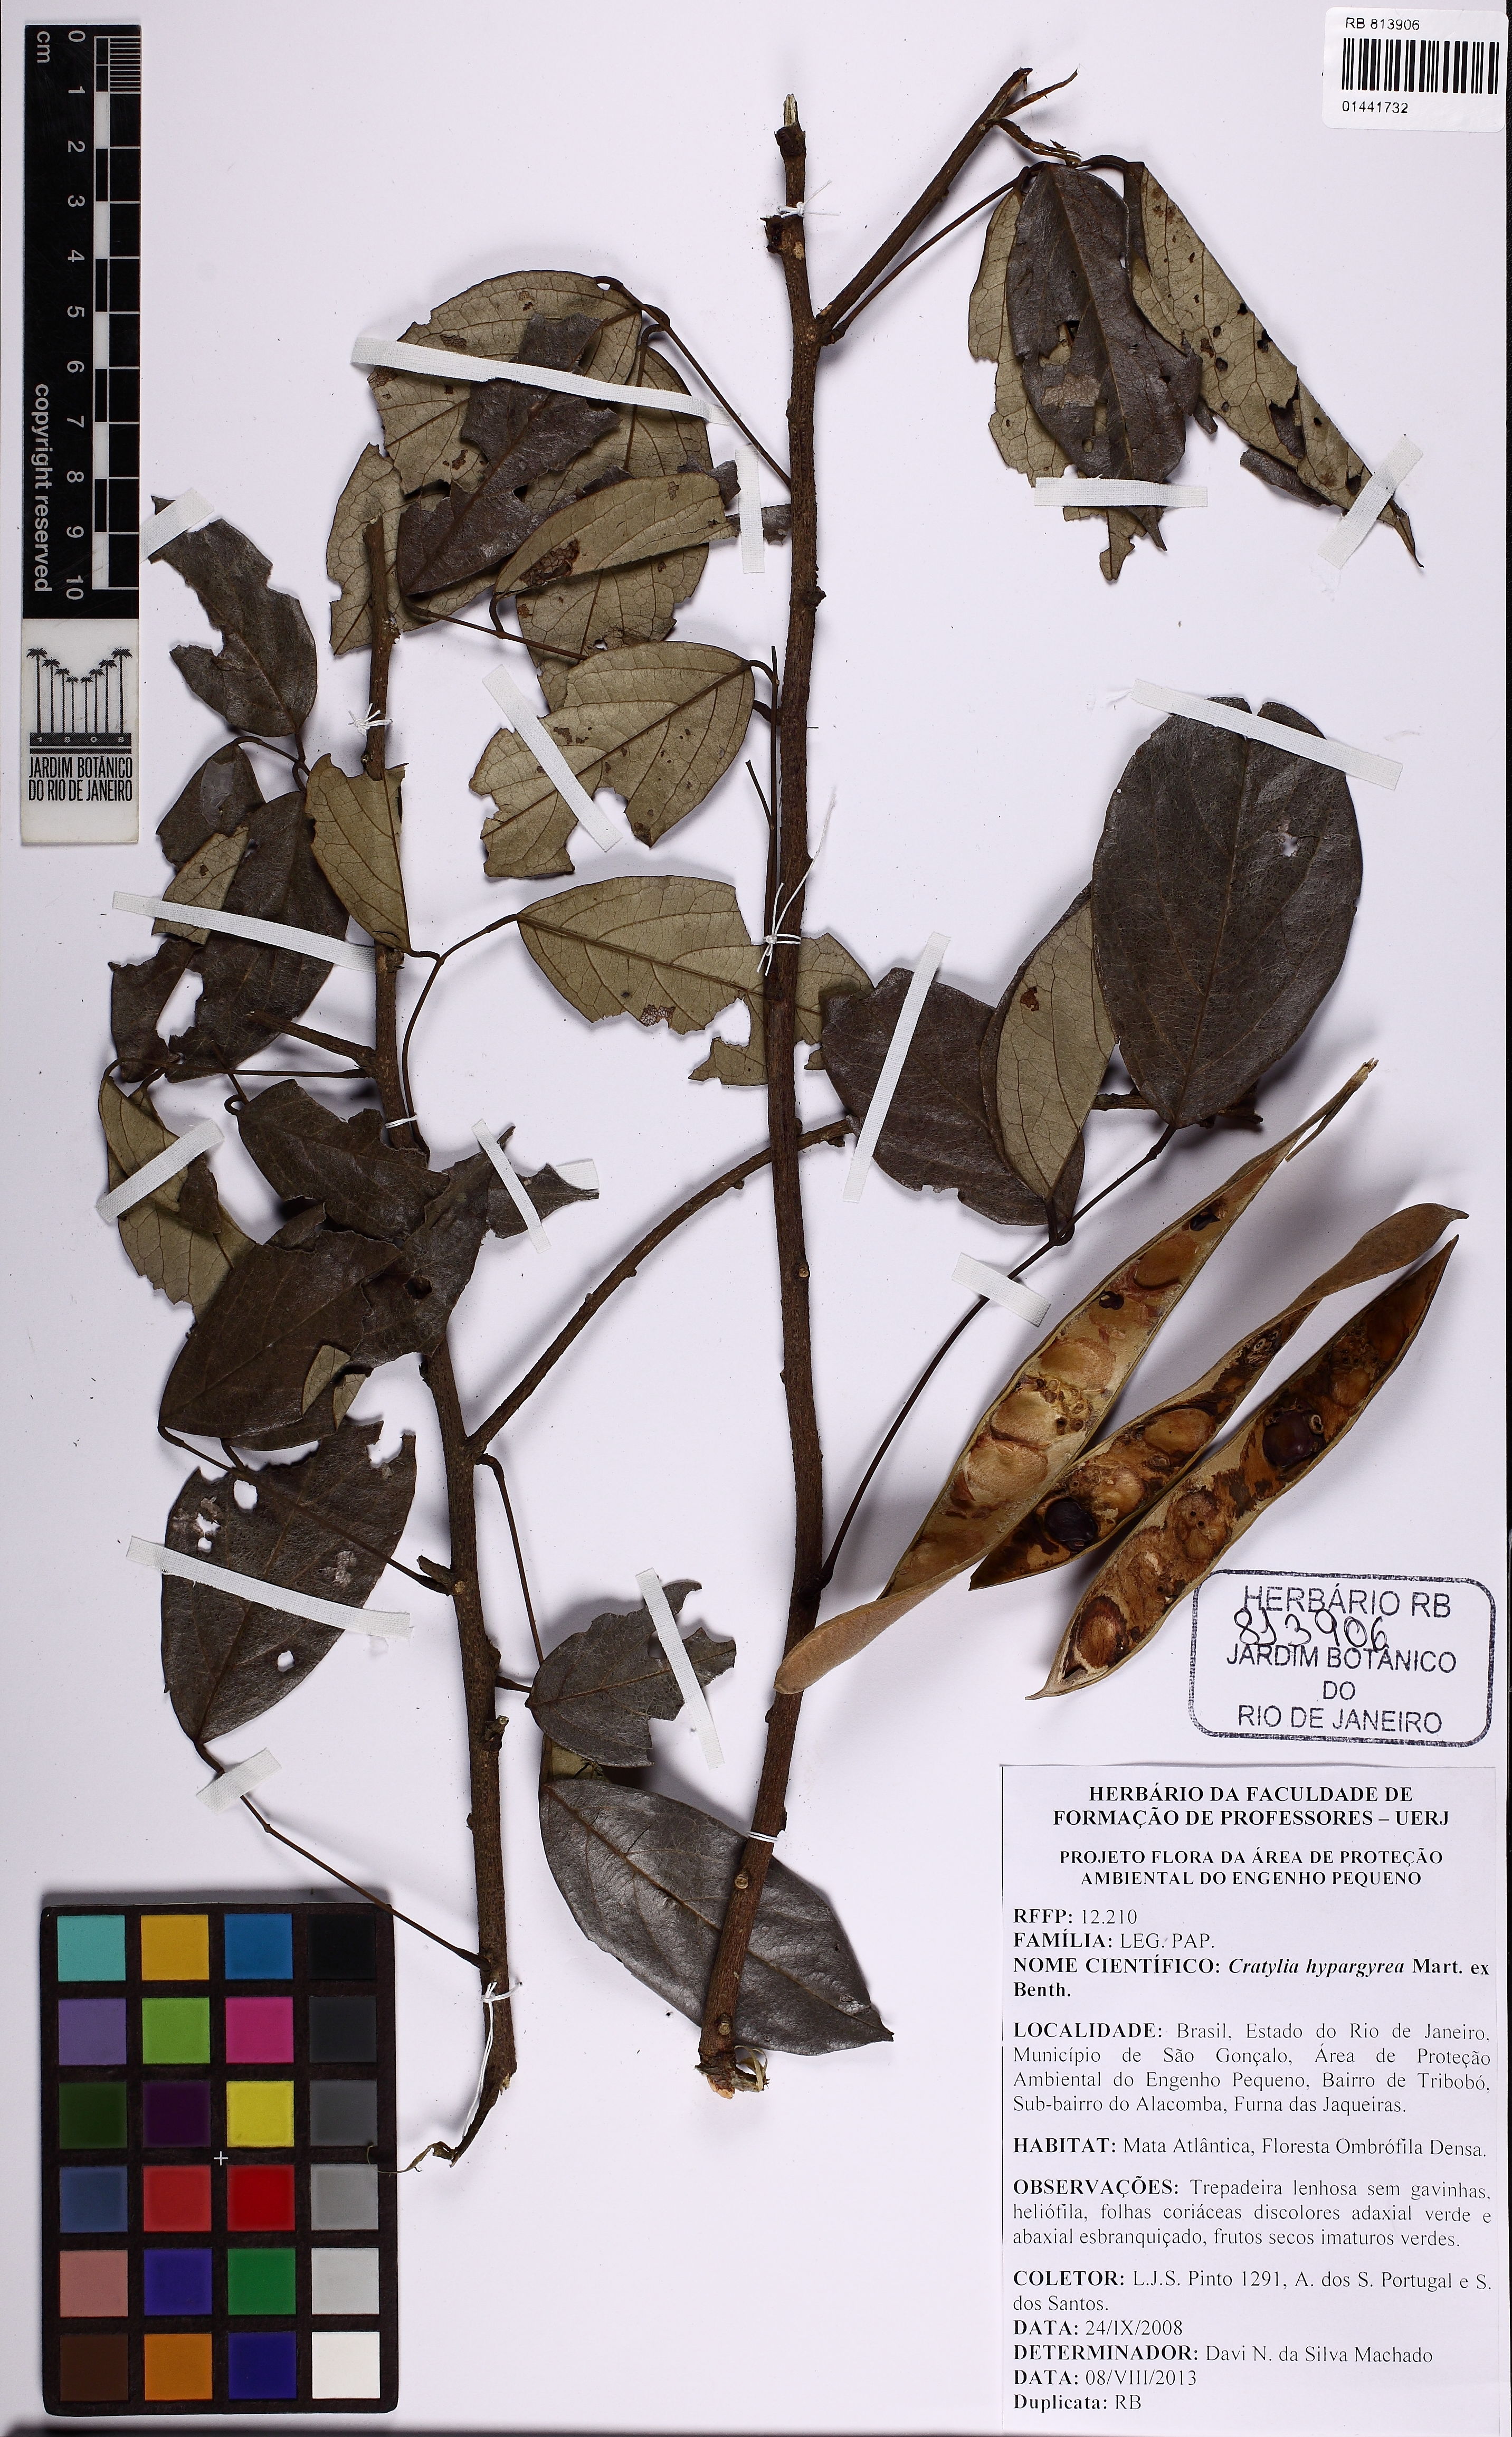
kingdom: Plantae
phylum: Tracheophyta
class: Magnoliopsida
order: Fabales
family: Fabaceae
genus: Cratylia
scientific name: Cratylia hypargyrea
